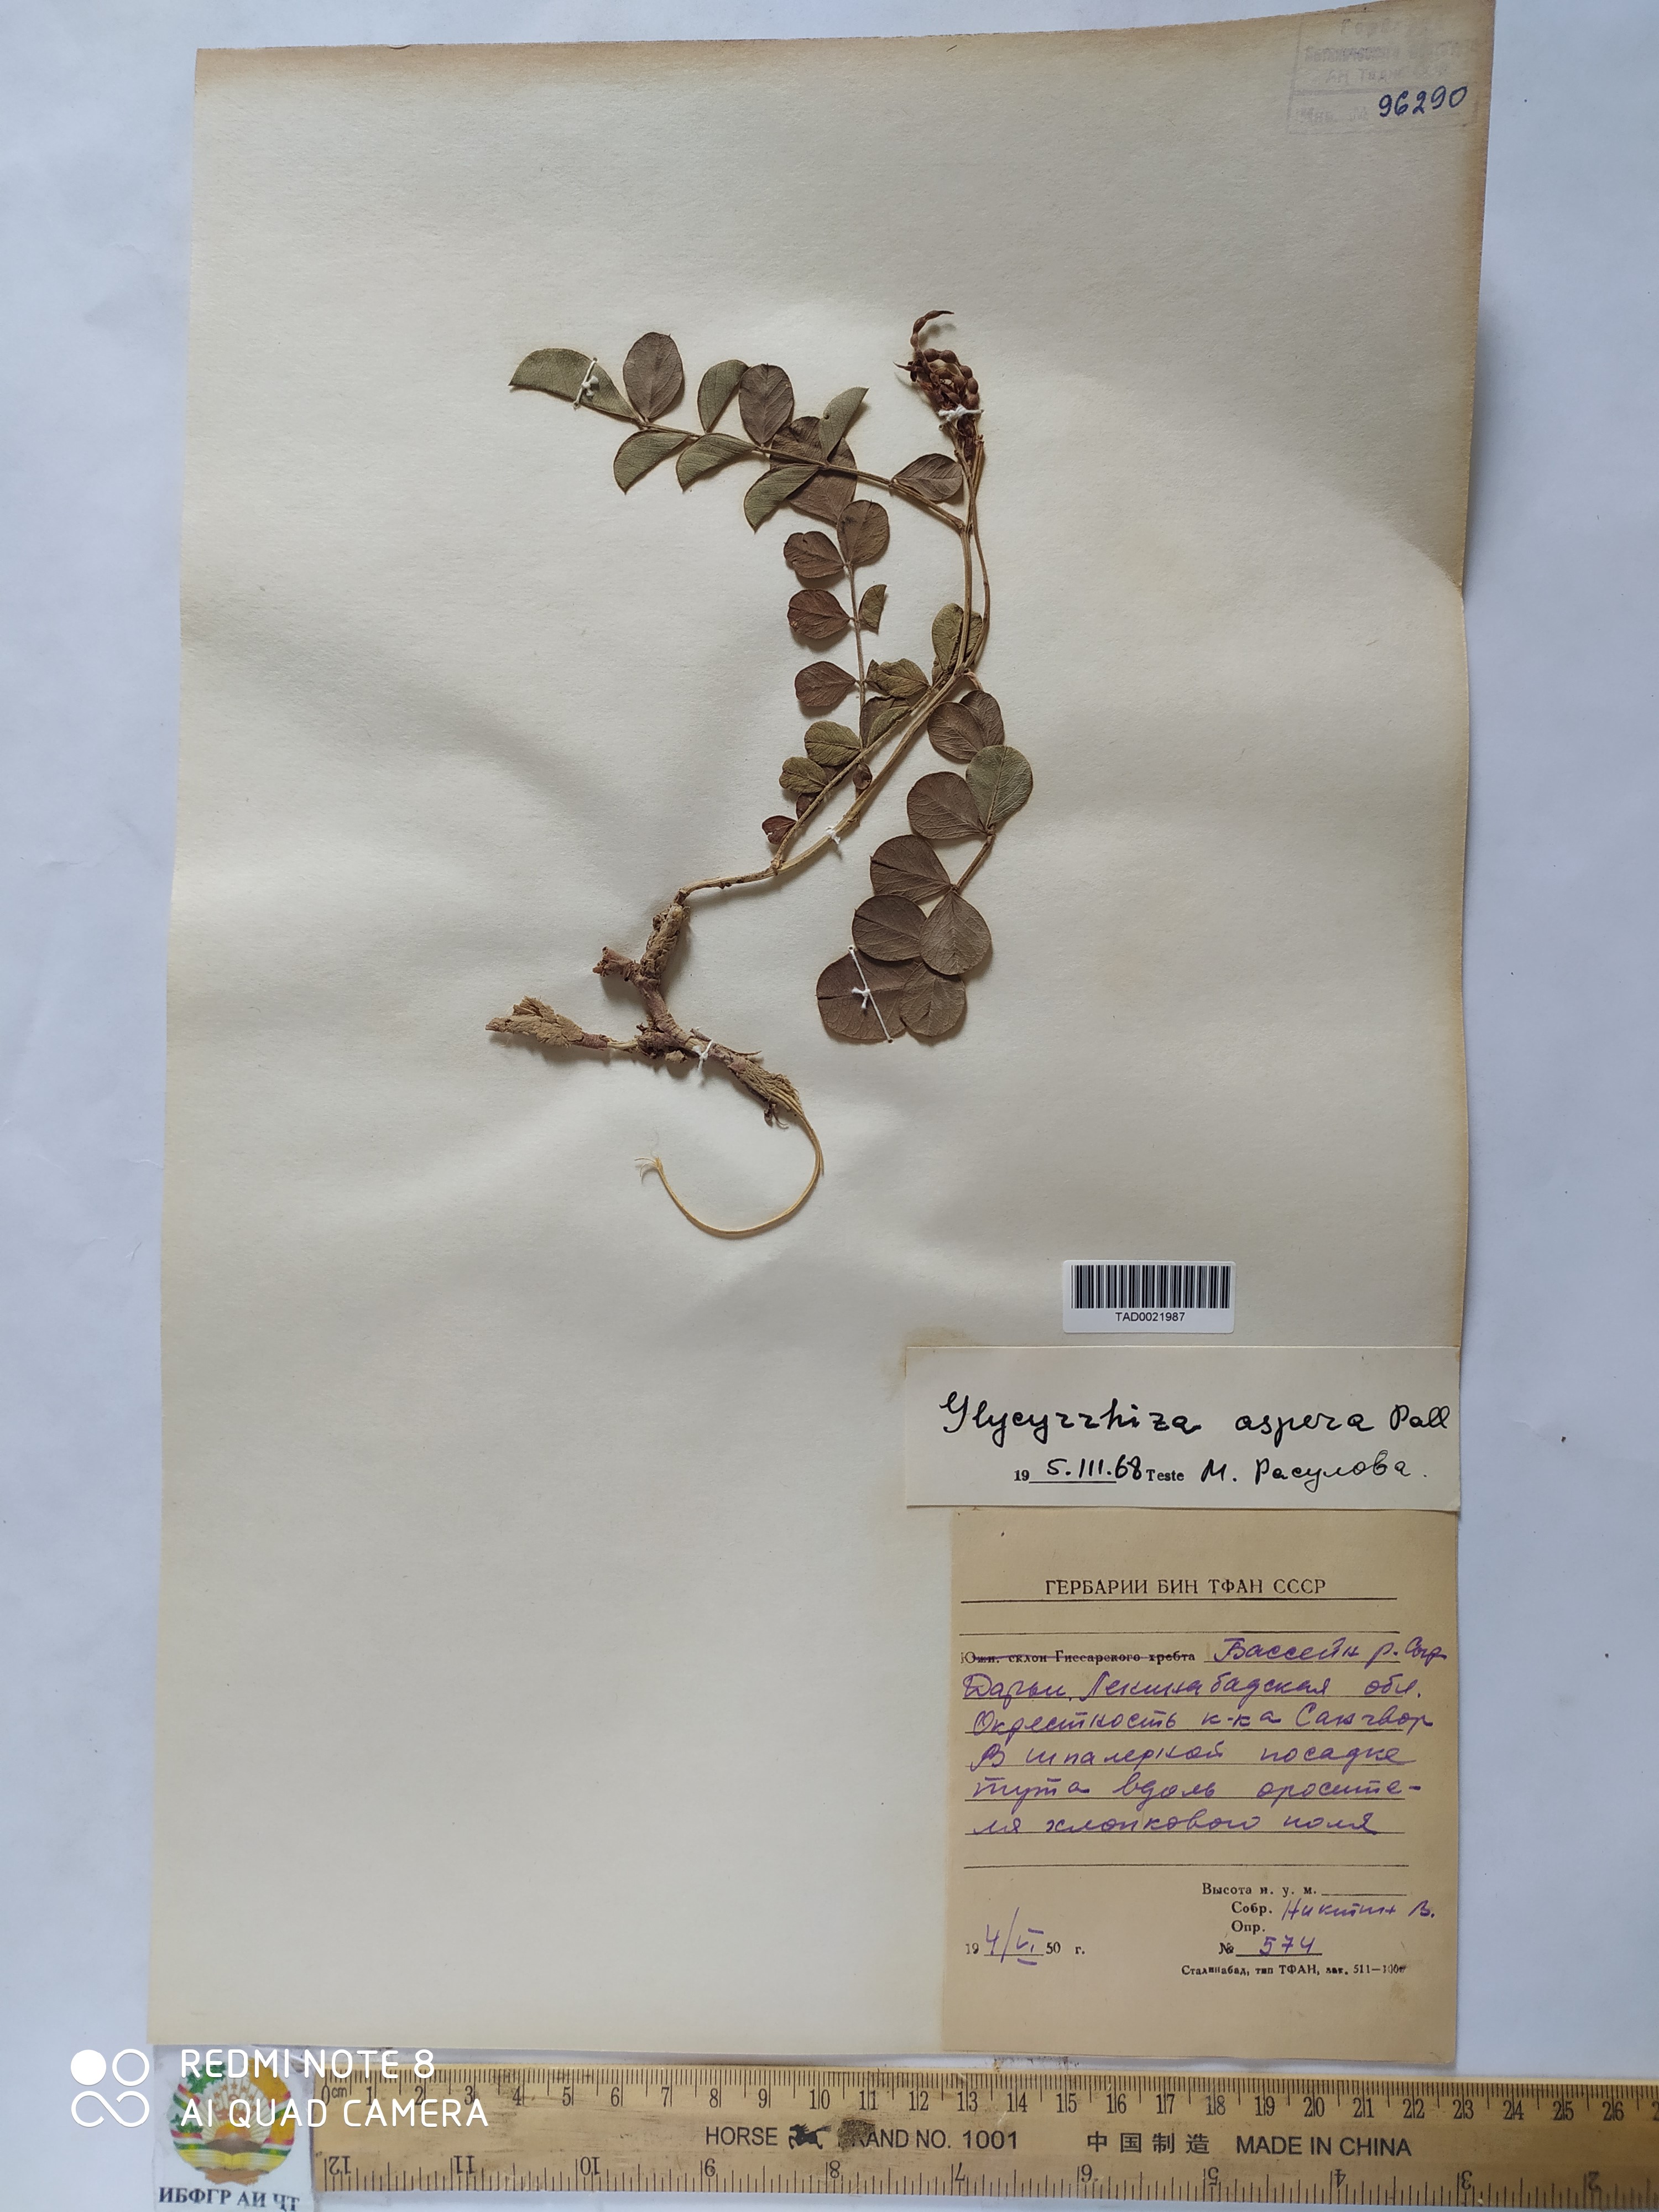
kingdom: Plantae
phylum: Tracheophyta
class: Magnoliopsida
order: Fabales
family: Fabaceae
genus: Glycyrrhiza
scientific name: Glycyrrhiza glabra
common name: Liquorice
